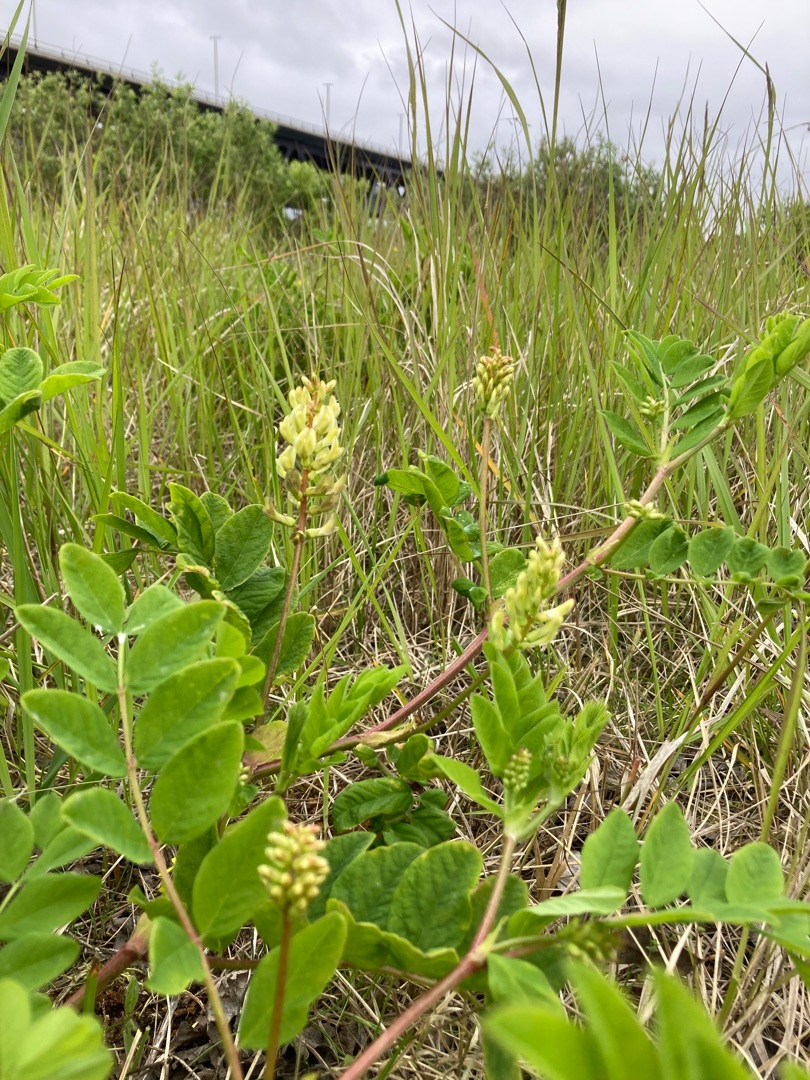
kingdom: Plantae
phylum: Tracheophyta
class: Magnoliopsida
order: Fabales
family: Fabaceae
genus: Astragalus
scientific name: Astragalus glycyphyllos
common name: Sød astragel
